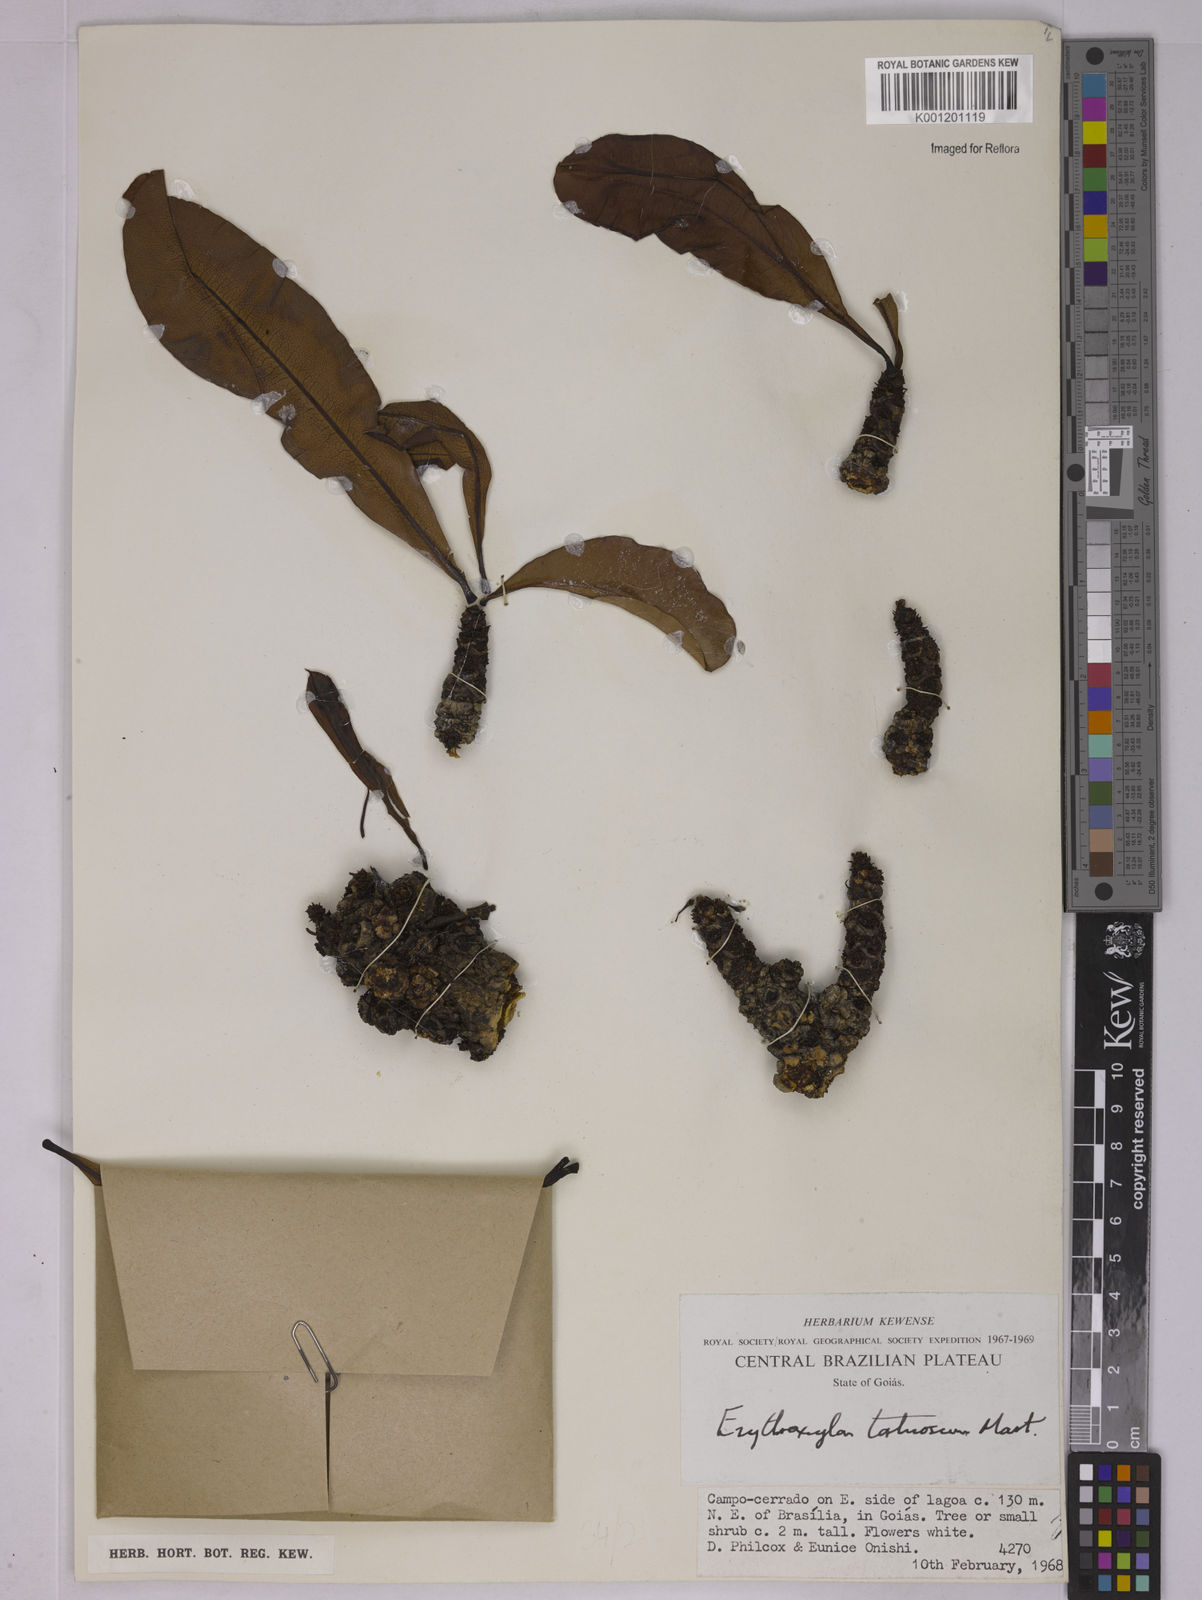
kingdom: Plantae
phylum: Tracheophyta
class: Magnoliopsida
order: Malpighiales
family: Erythroxylaceae
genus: Erythroxylum
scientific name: Erythroxylum tortuosum
